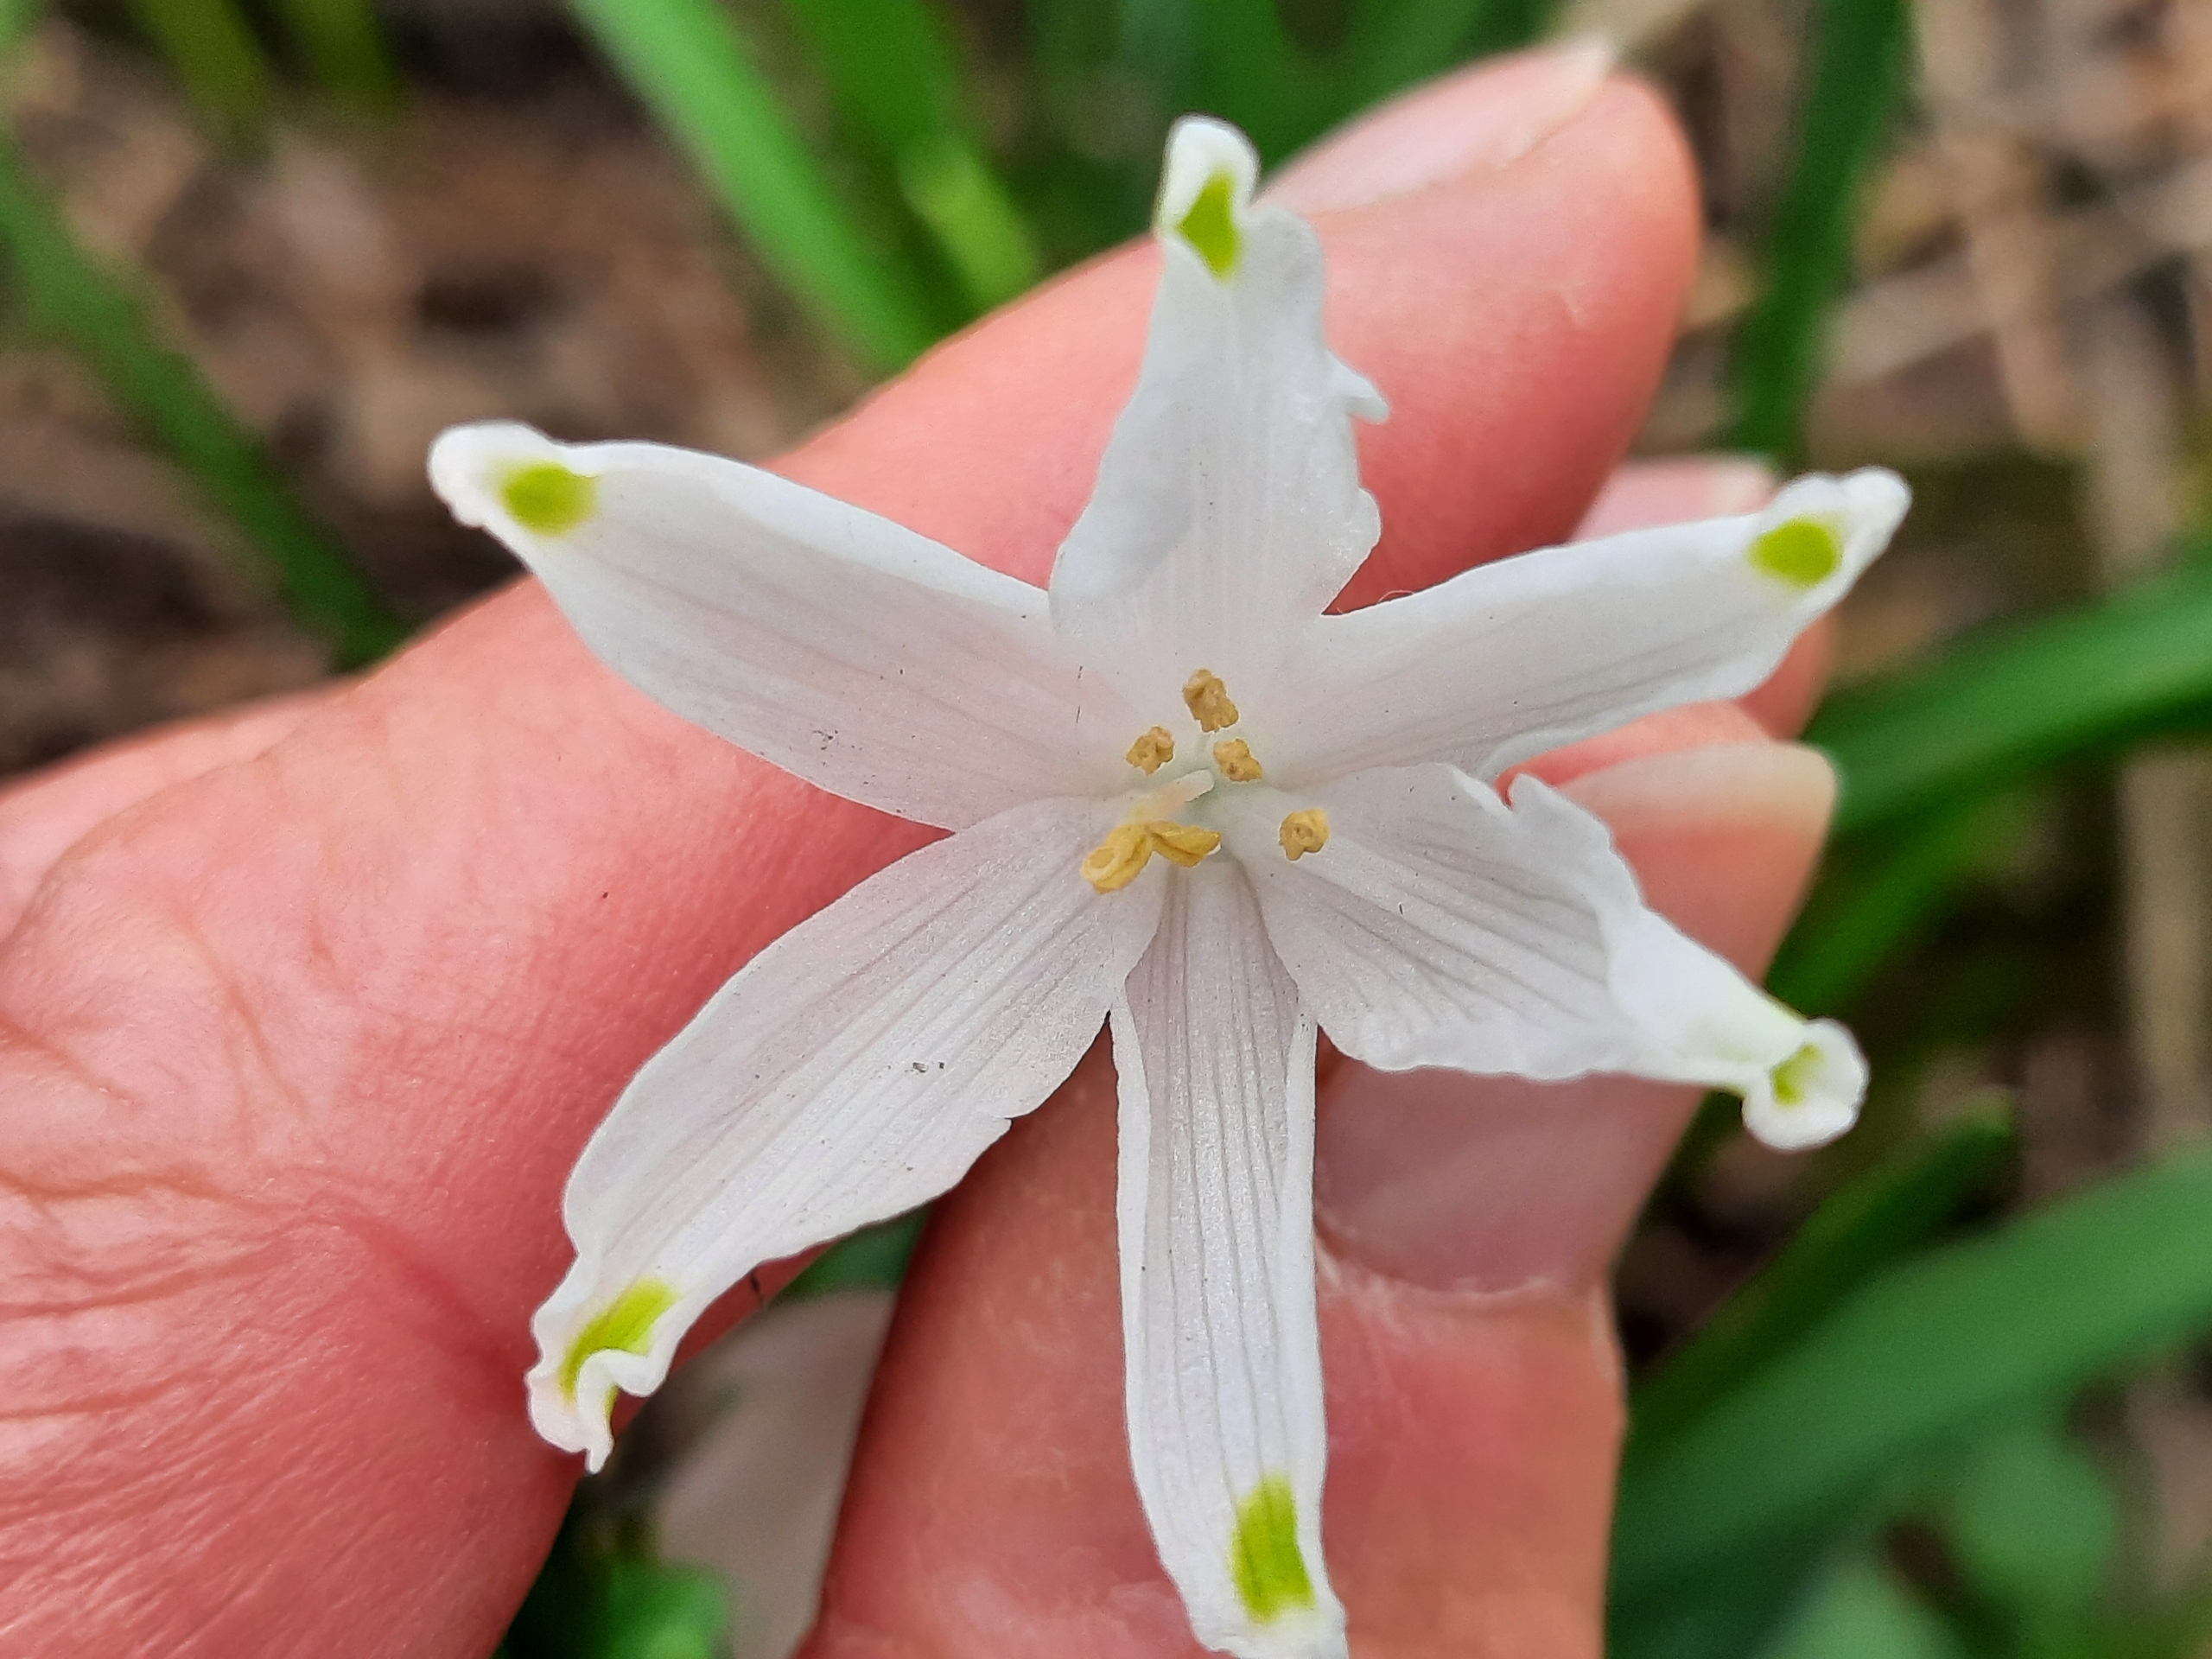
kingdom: Plantae
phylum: Tracheophyta
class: Liliopsida
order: Asparagales
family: Amaryllidaceae
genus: Leucojum
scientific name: Leucojum aestivum
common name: Sommer-hvidblomme
